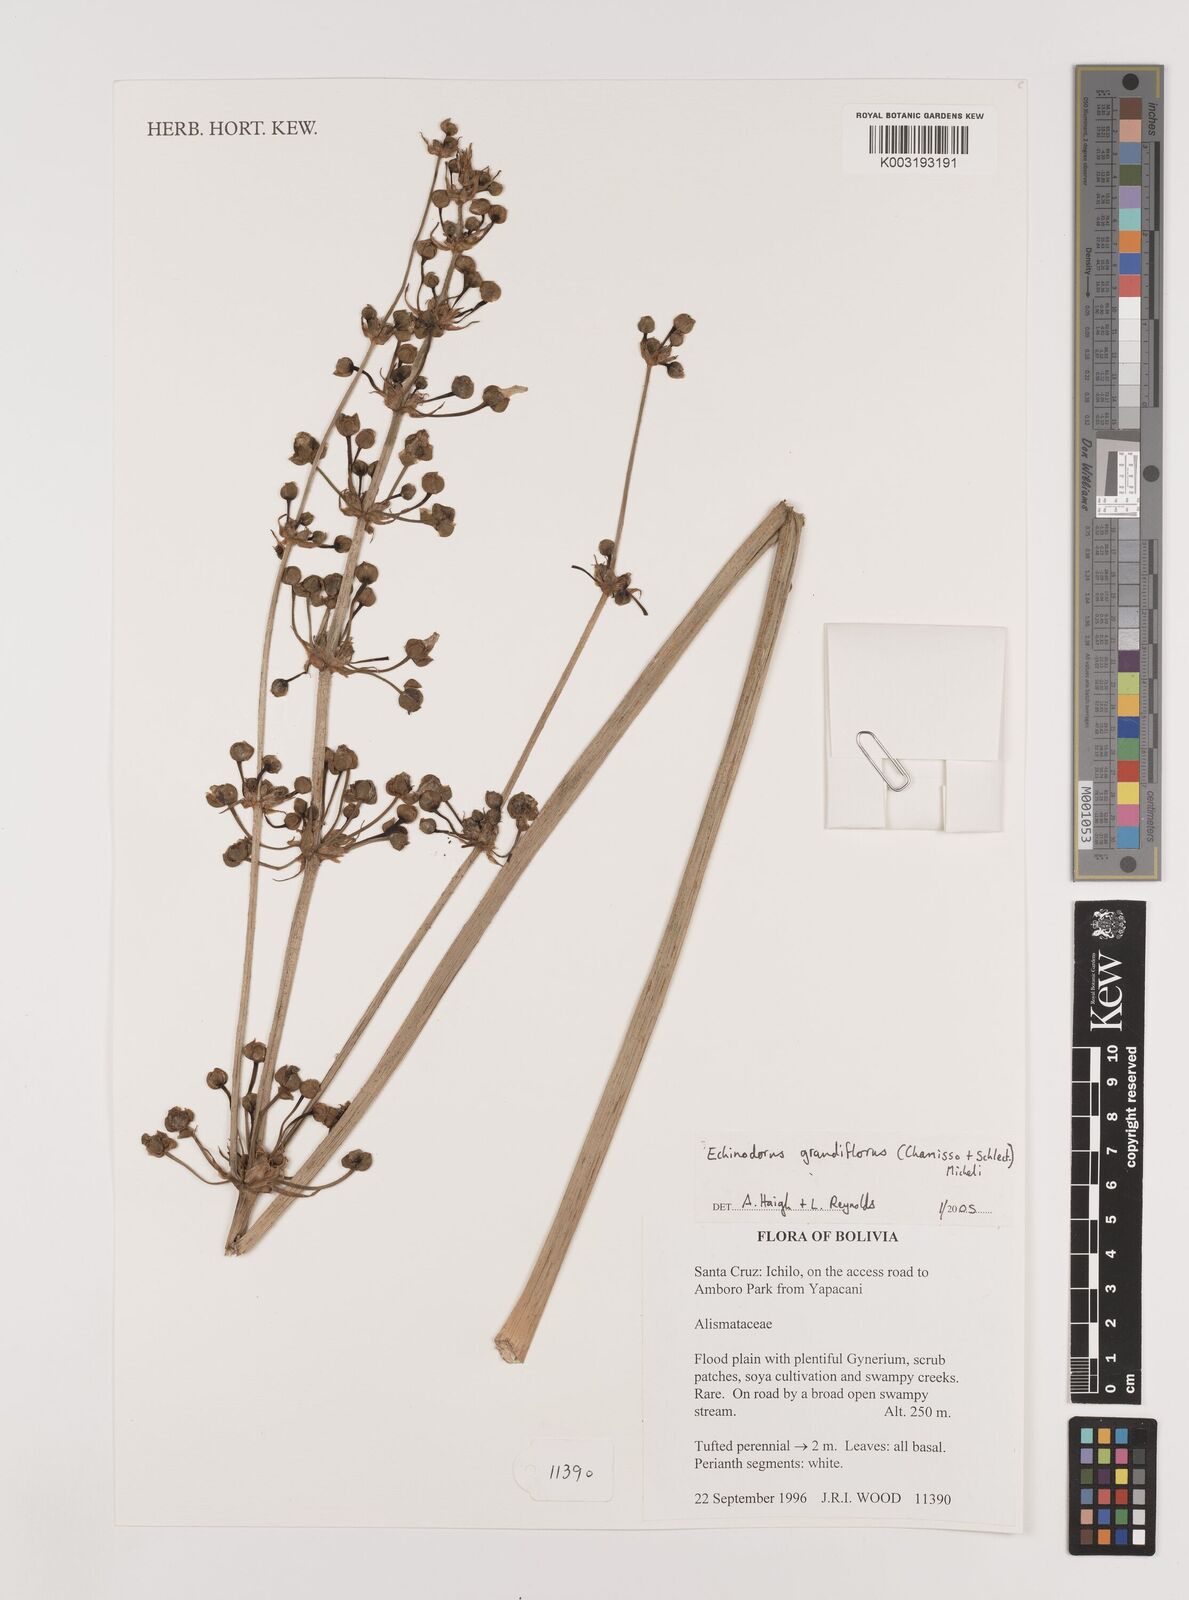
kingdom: Plantae
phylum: Tracheophyta
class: Liliopsida
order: Alismatales
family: Alismataceae
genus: Aquarius
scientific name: Aquarius grandiflorus
